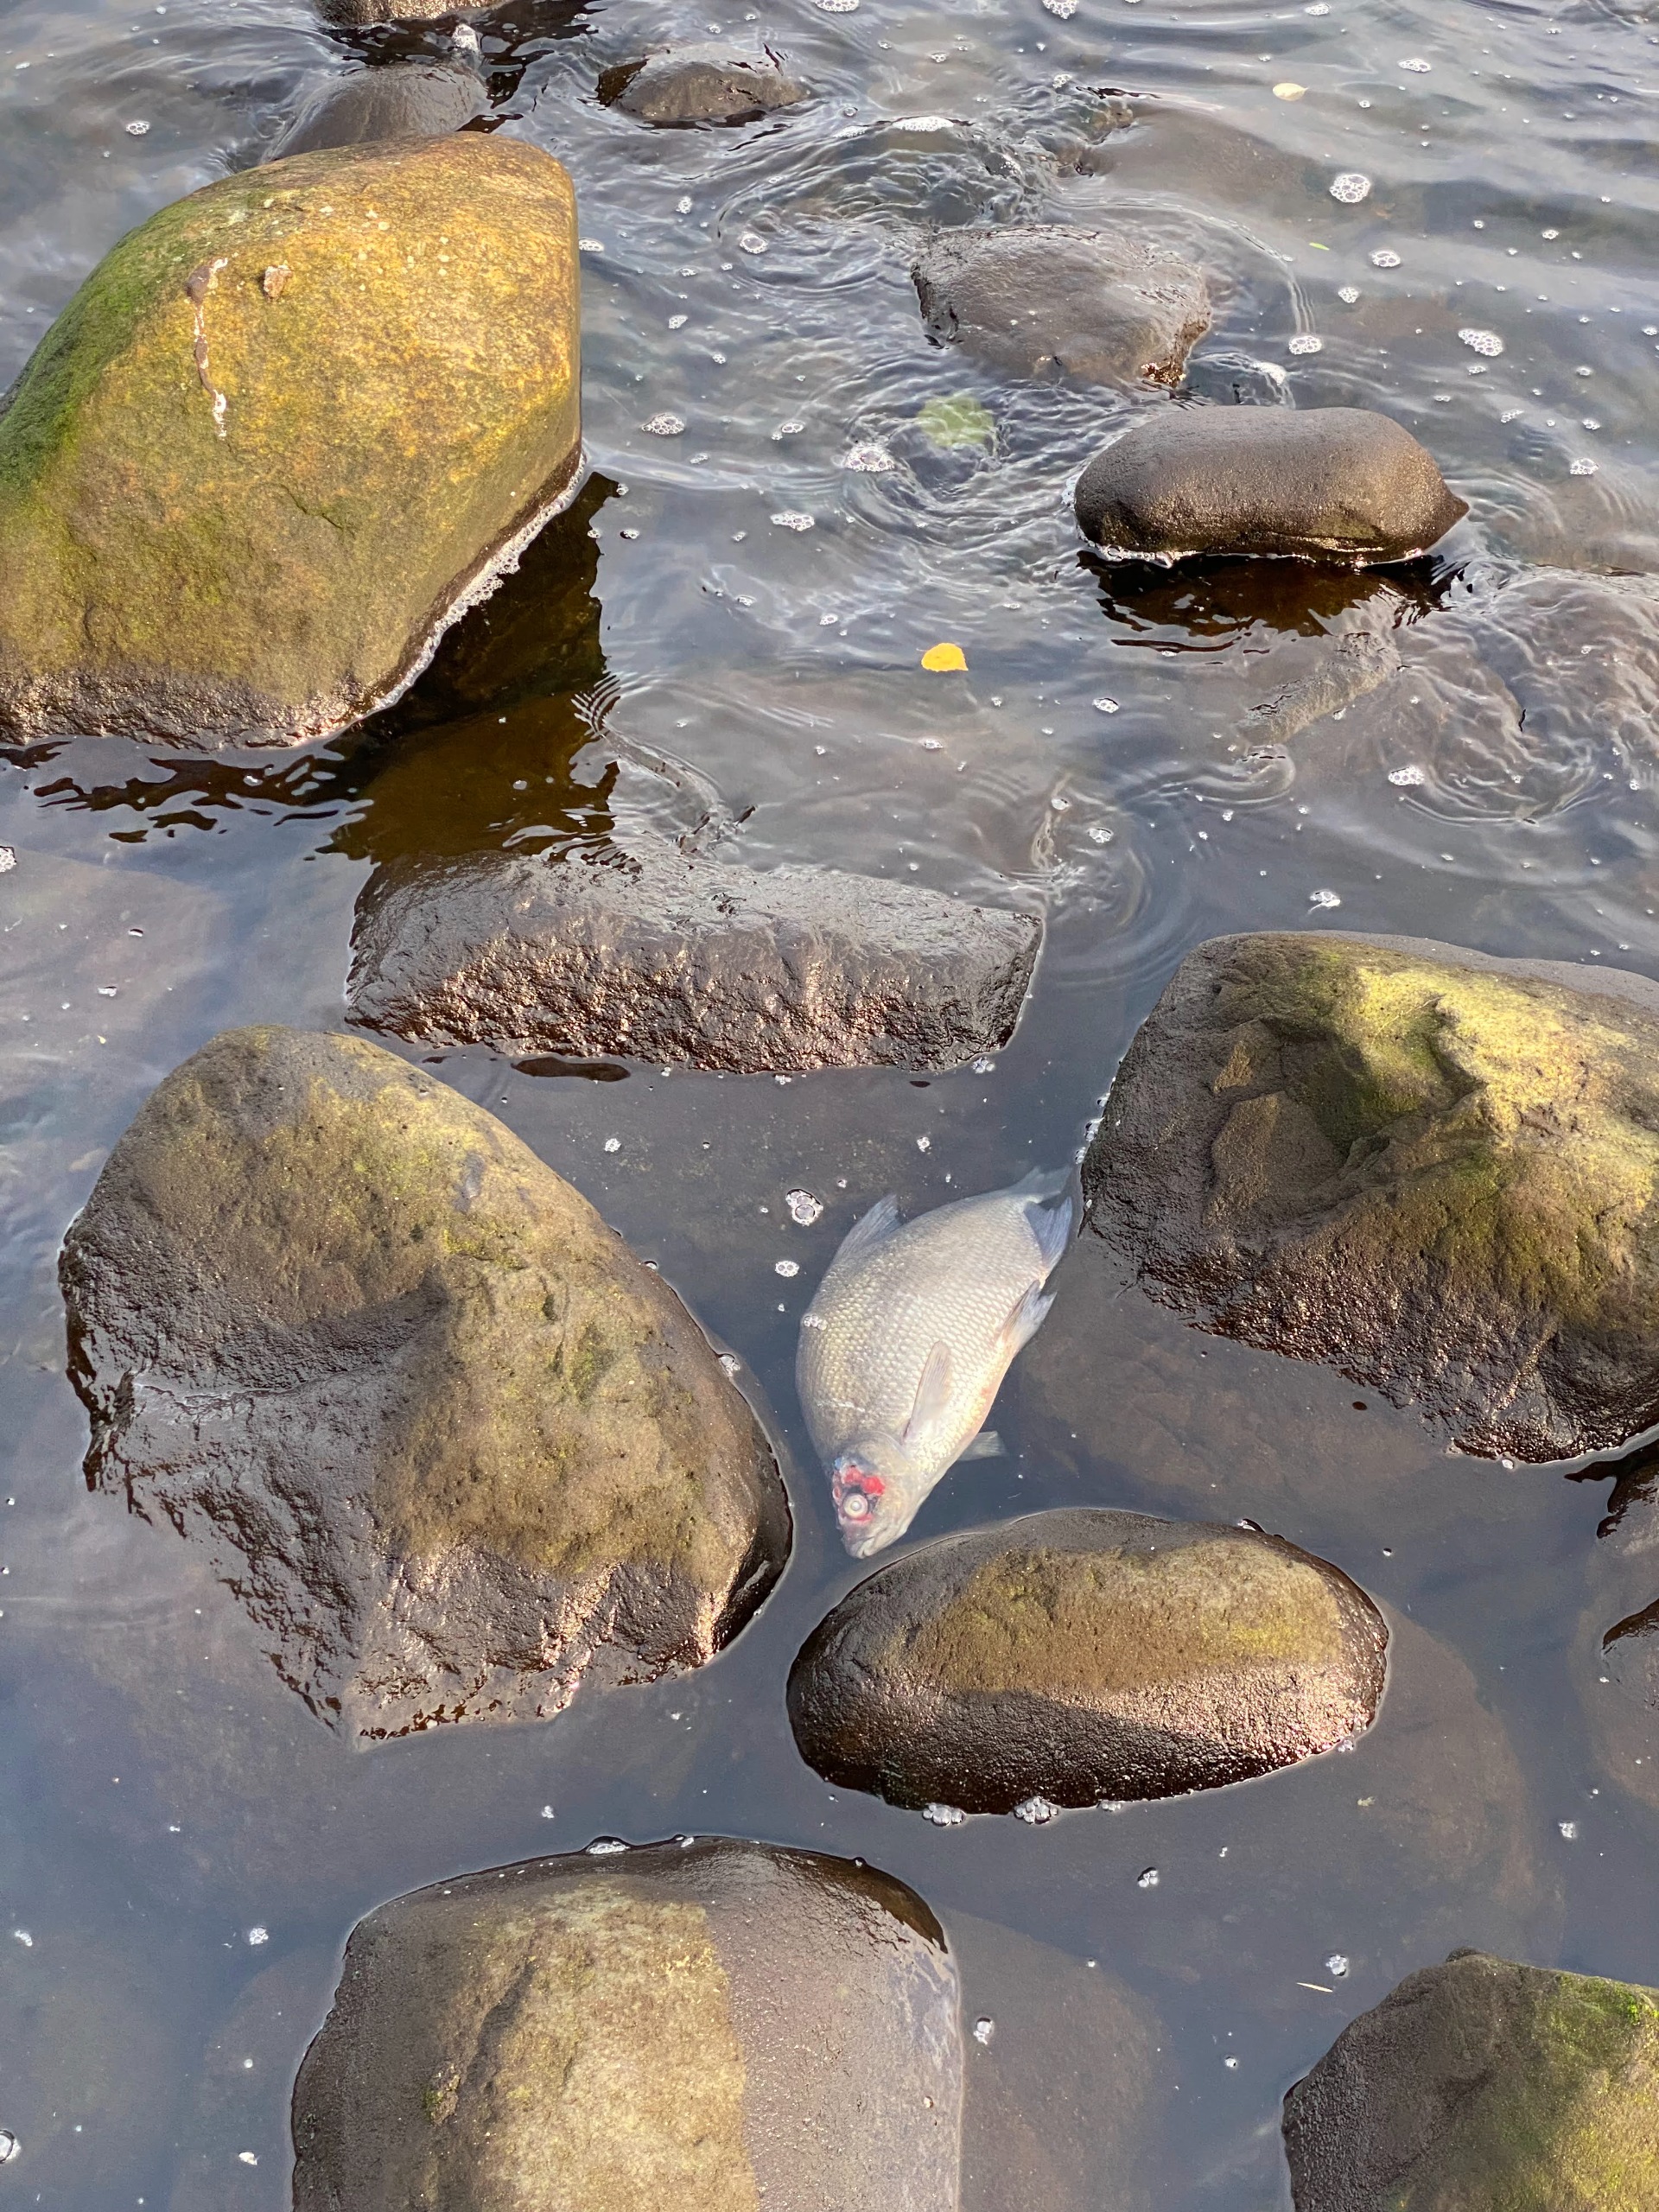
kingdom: Animalia
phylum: Chordata
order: Cypriniformes
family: Cyprinidae
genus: Abramis
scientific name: Abramis brama
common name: Brasen
